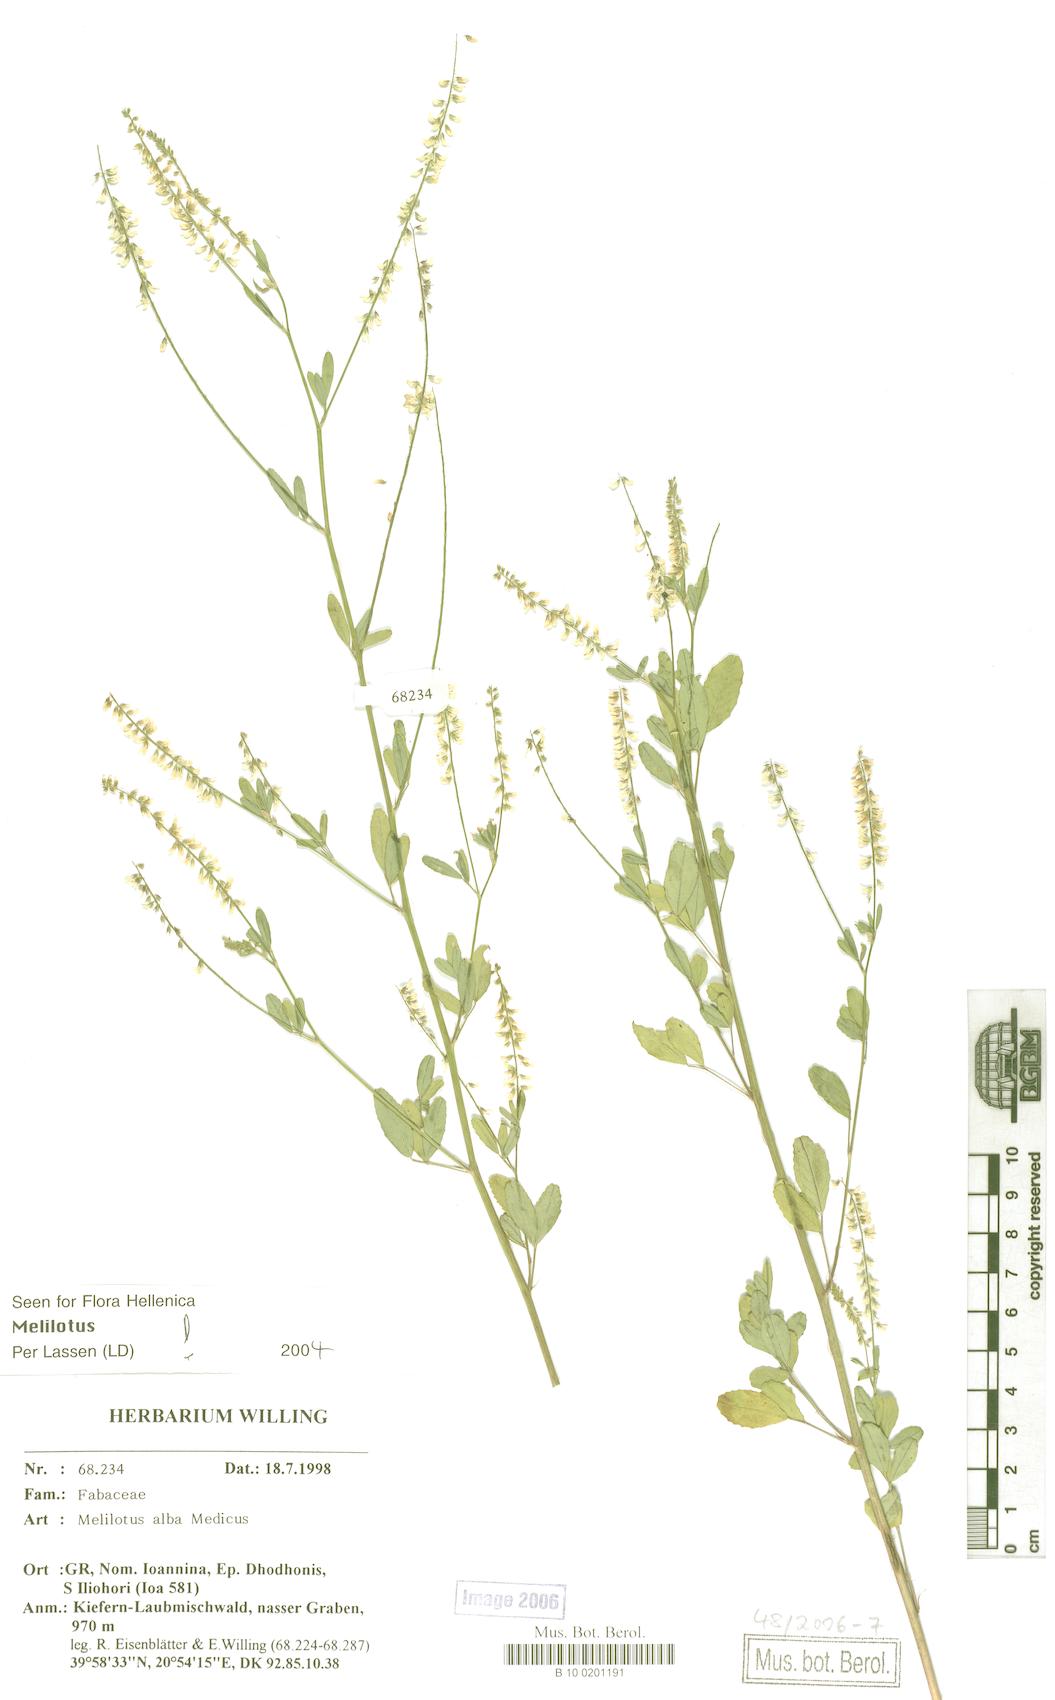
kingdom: Plantae
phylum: Tracheophyta
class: Magnoliopsida
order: Fabales
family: Fabaceae
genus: Melilotus
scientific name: Melilotus albus
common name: White melilot
